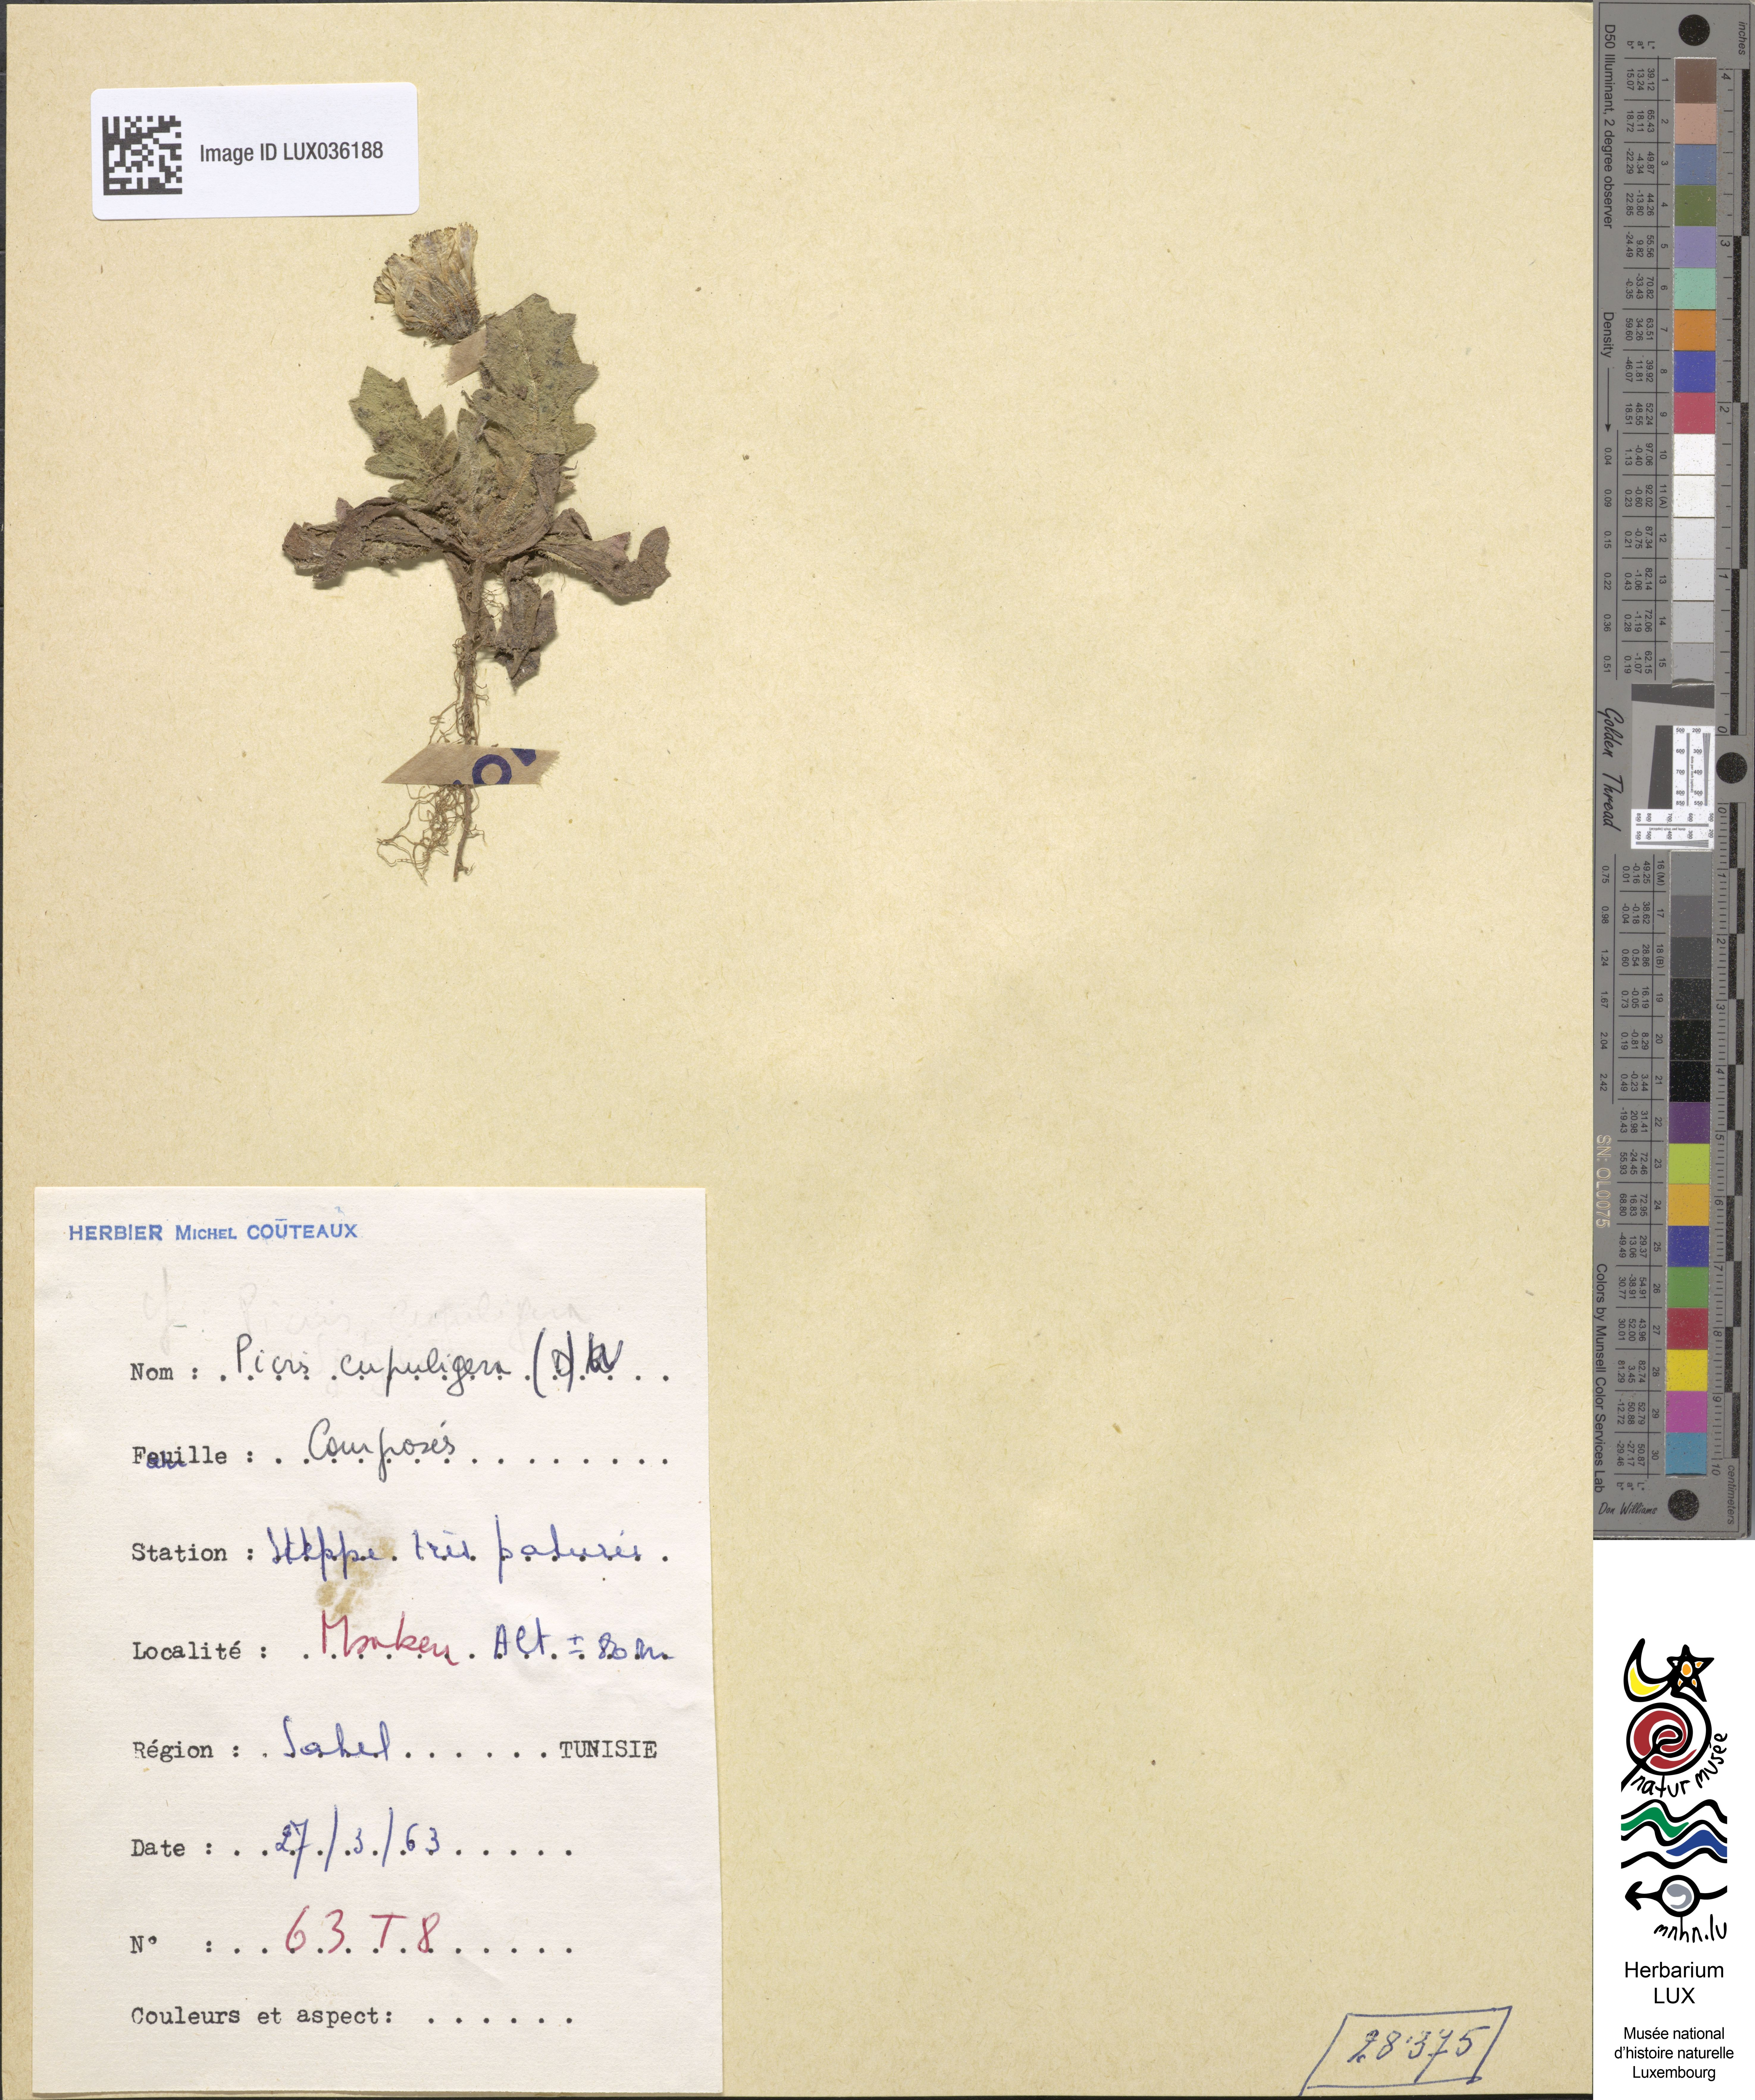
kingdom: Plantae
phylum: Tracheophyta
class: Magnoliopsida
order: Asterales
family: Asteraceae
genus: Picris
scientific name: Picris cupuligera
